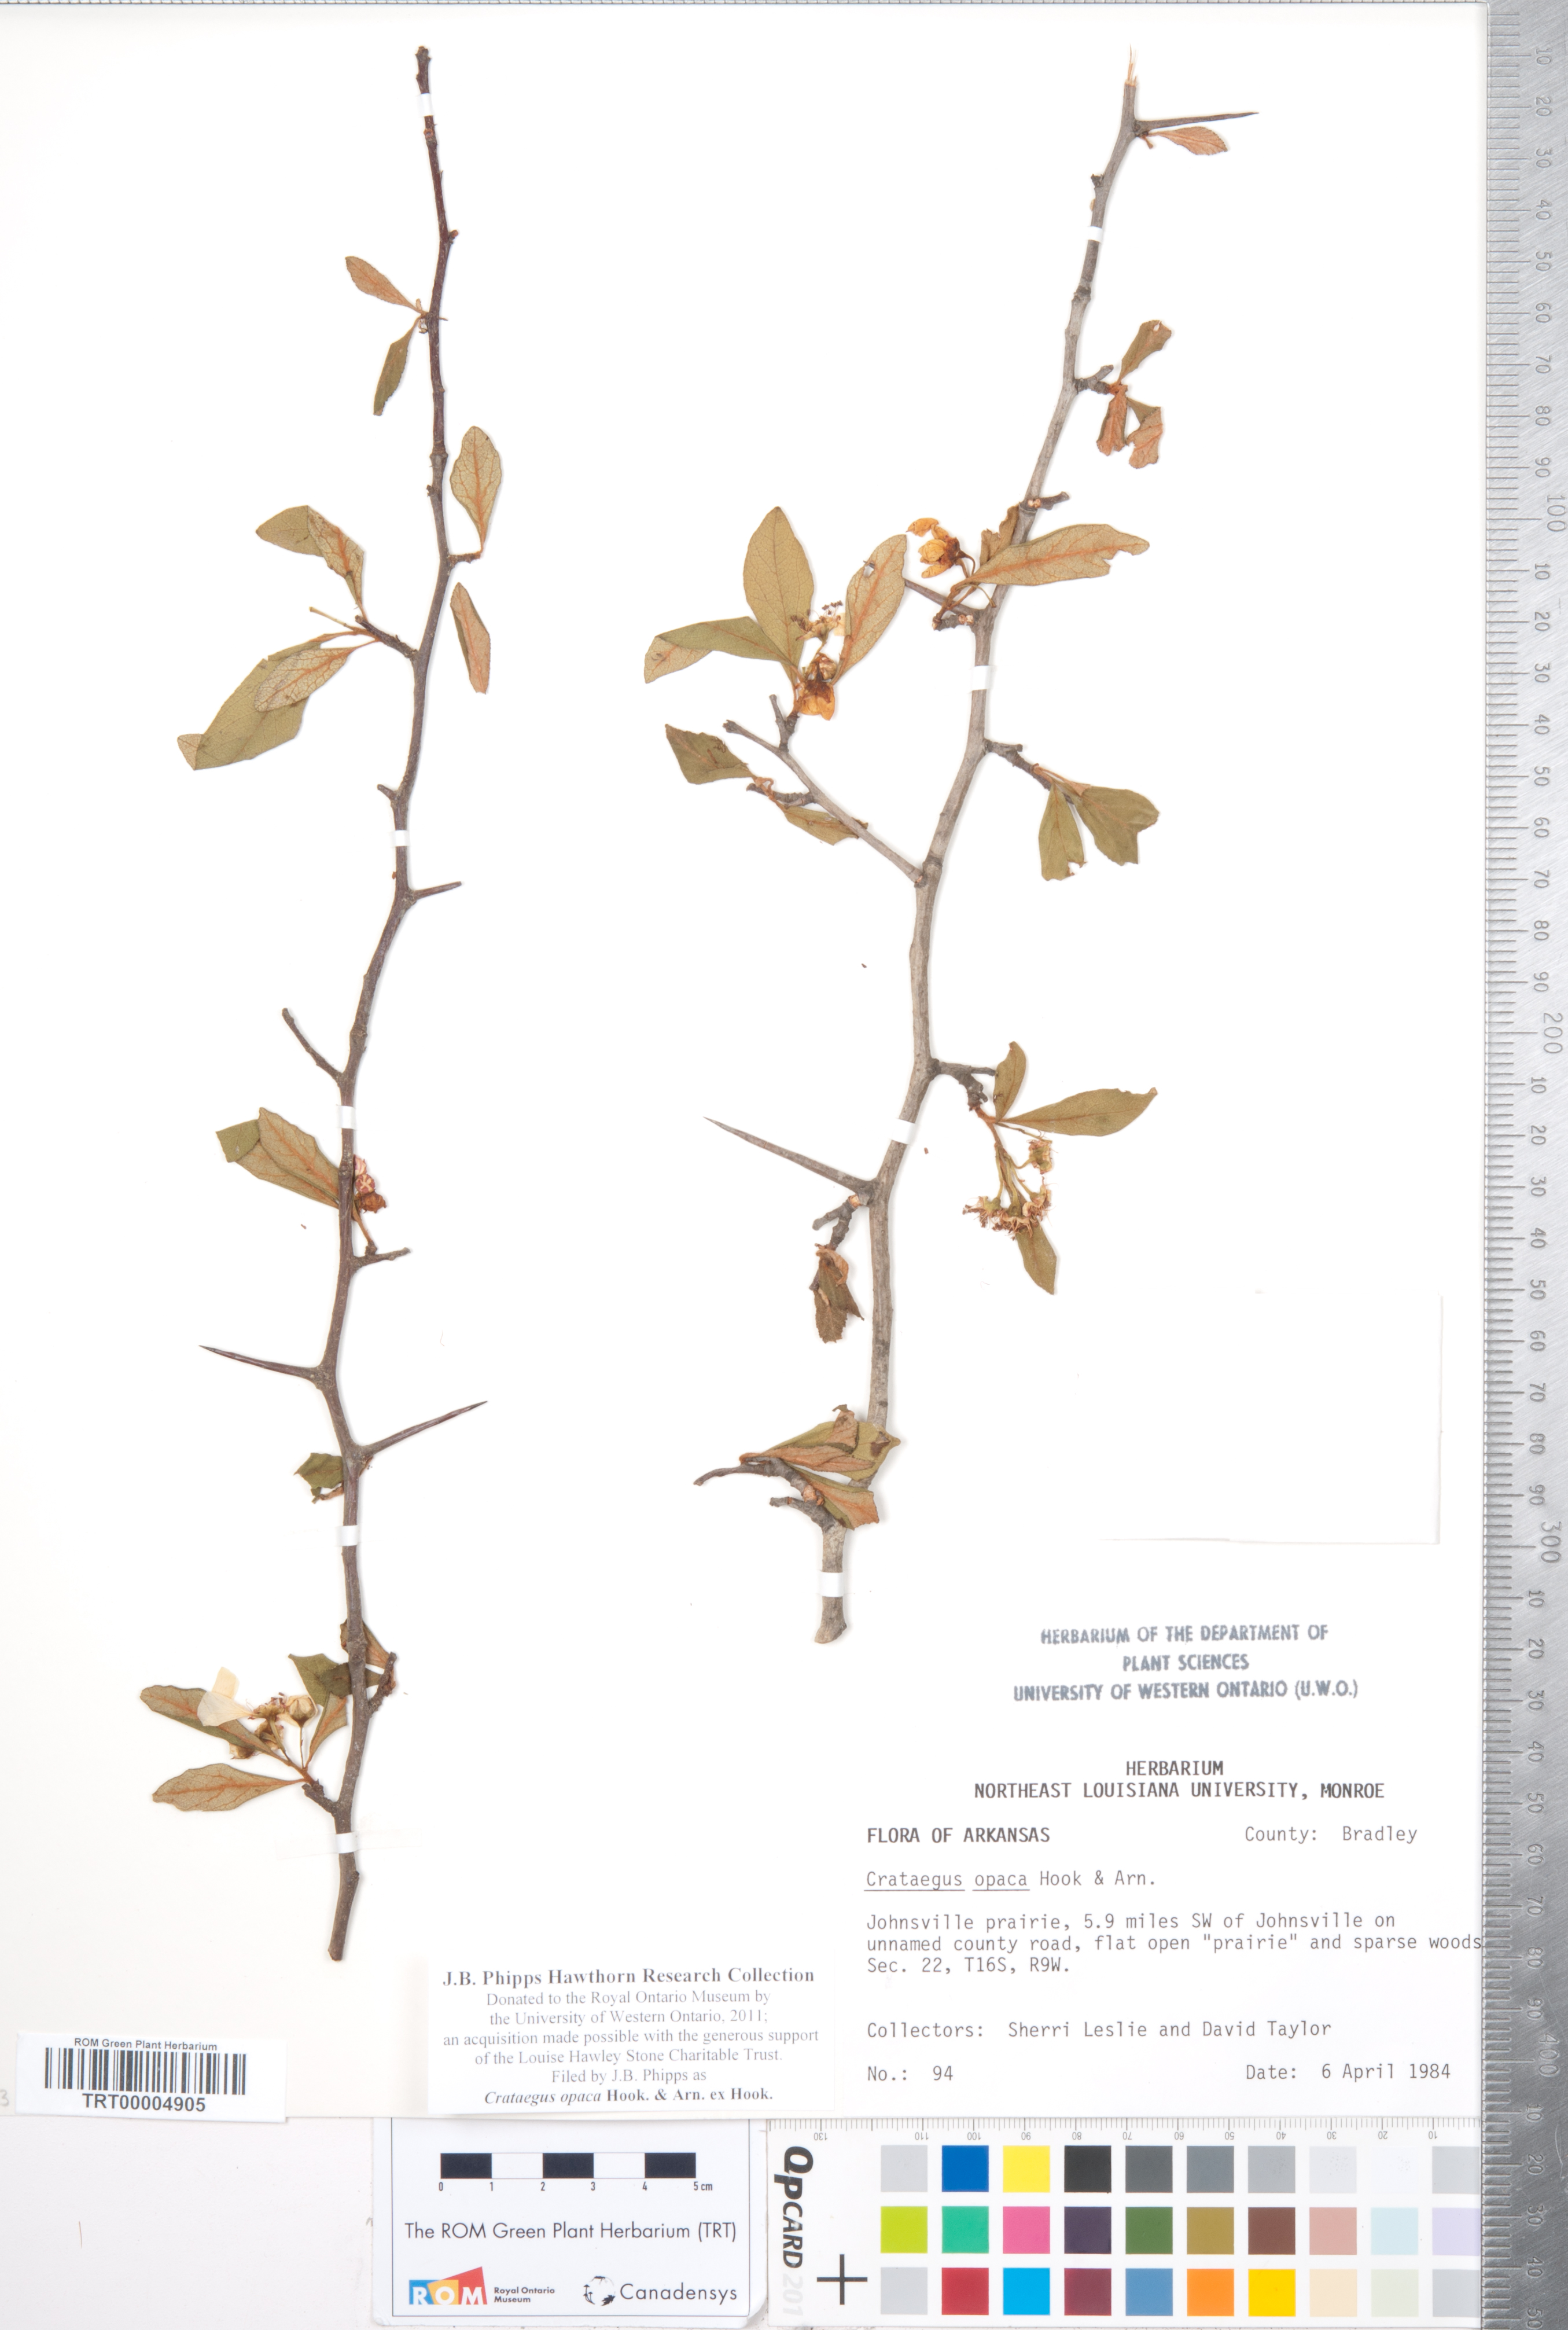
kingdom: Plantae
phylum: Tracheophyta
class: Magnoliopsida
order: Rosales
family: Rosaceae
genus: Crataegus
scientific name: Crataegus opaca
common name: Apple haw
